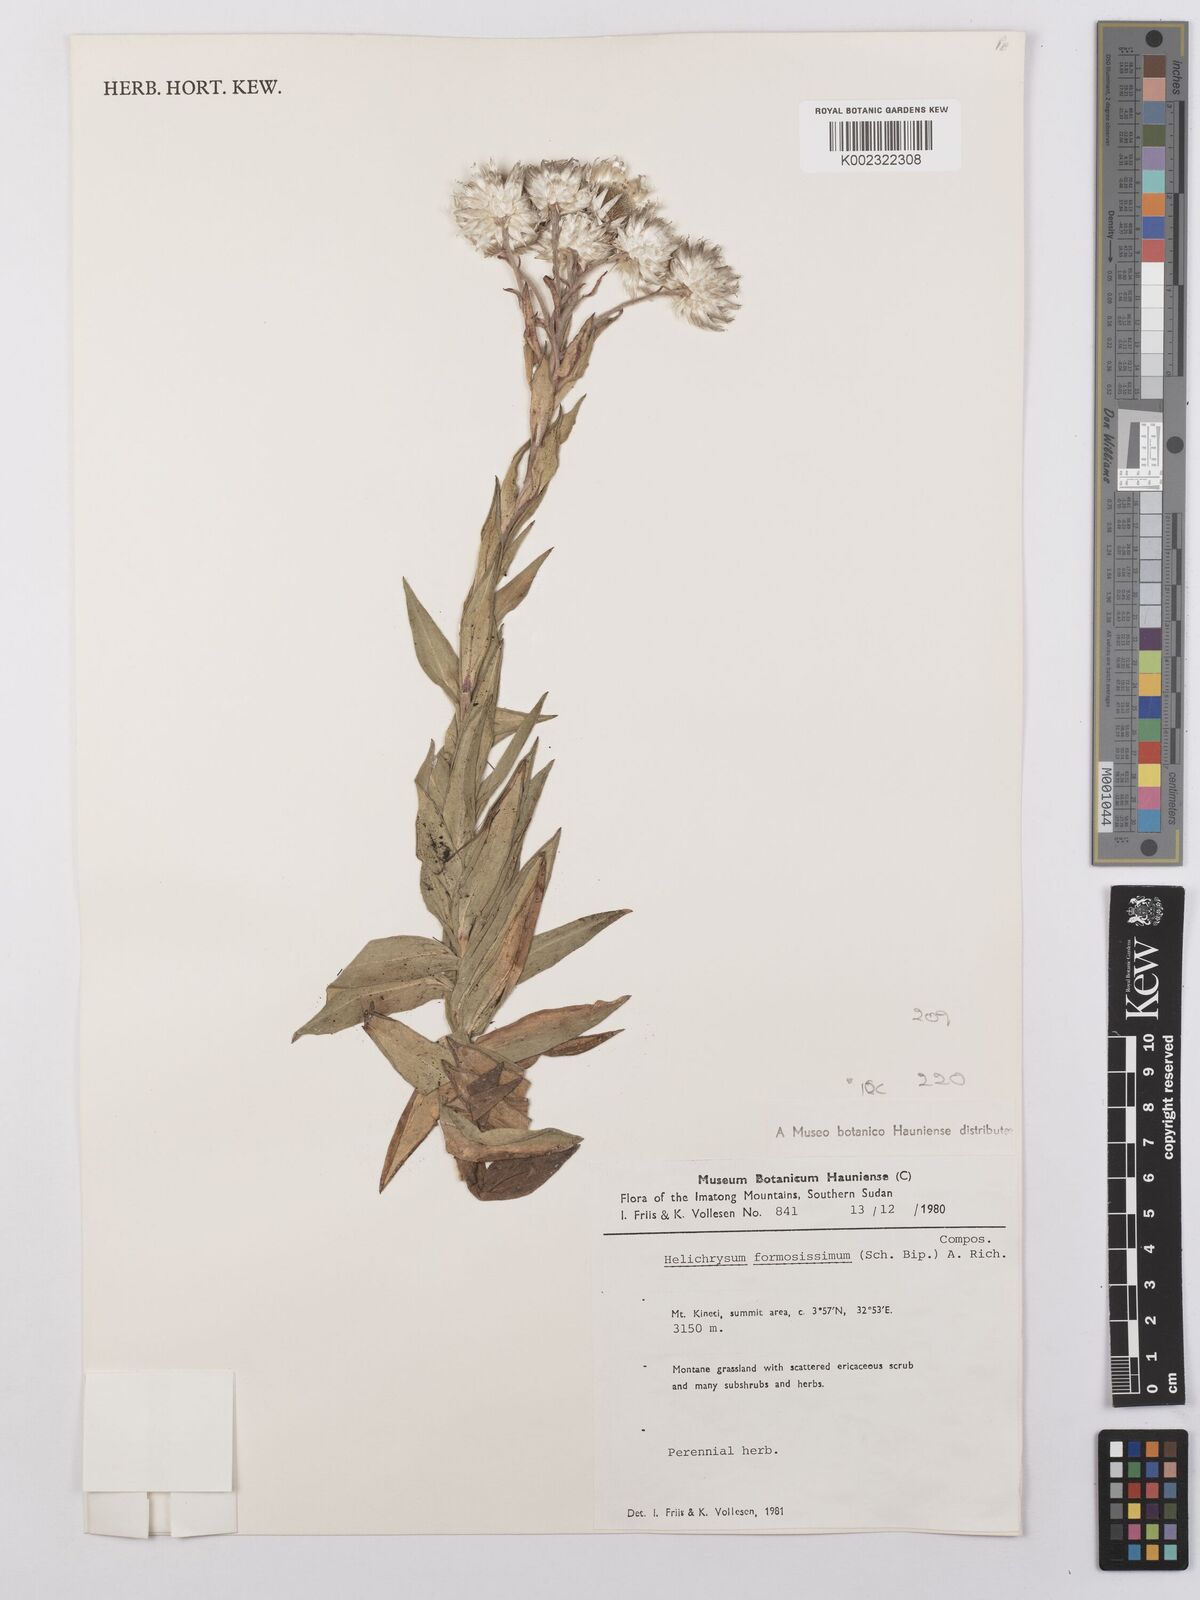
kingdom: Plantae
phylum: Tracheophyta
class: Magnoliopsida
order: Asterales
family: Asteraceae
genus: Helichrysum
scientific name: Helichrysum formosissimum
